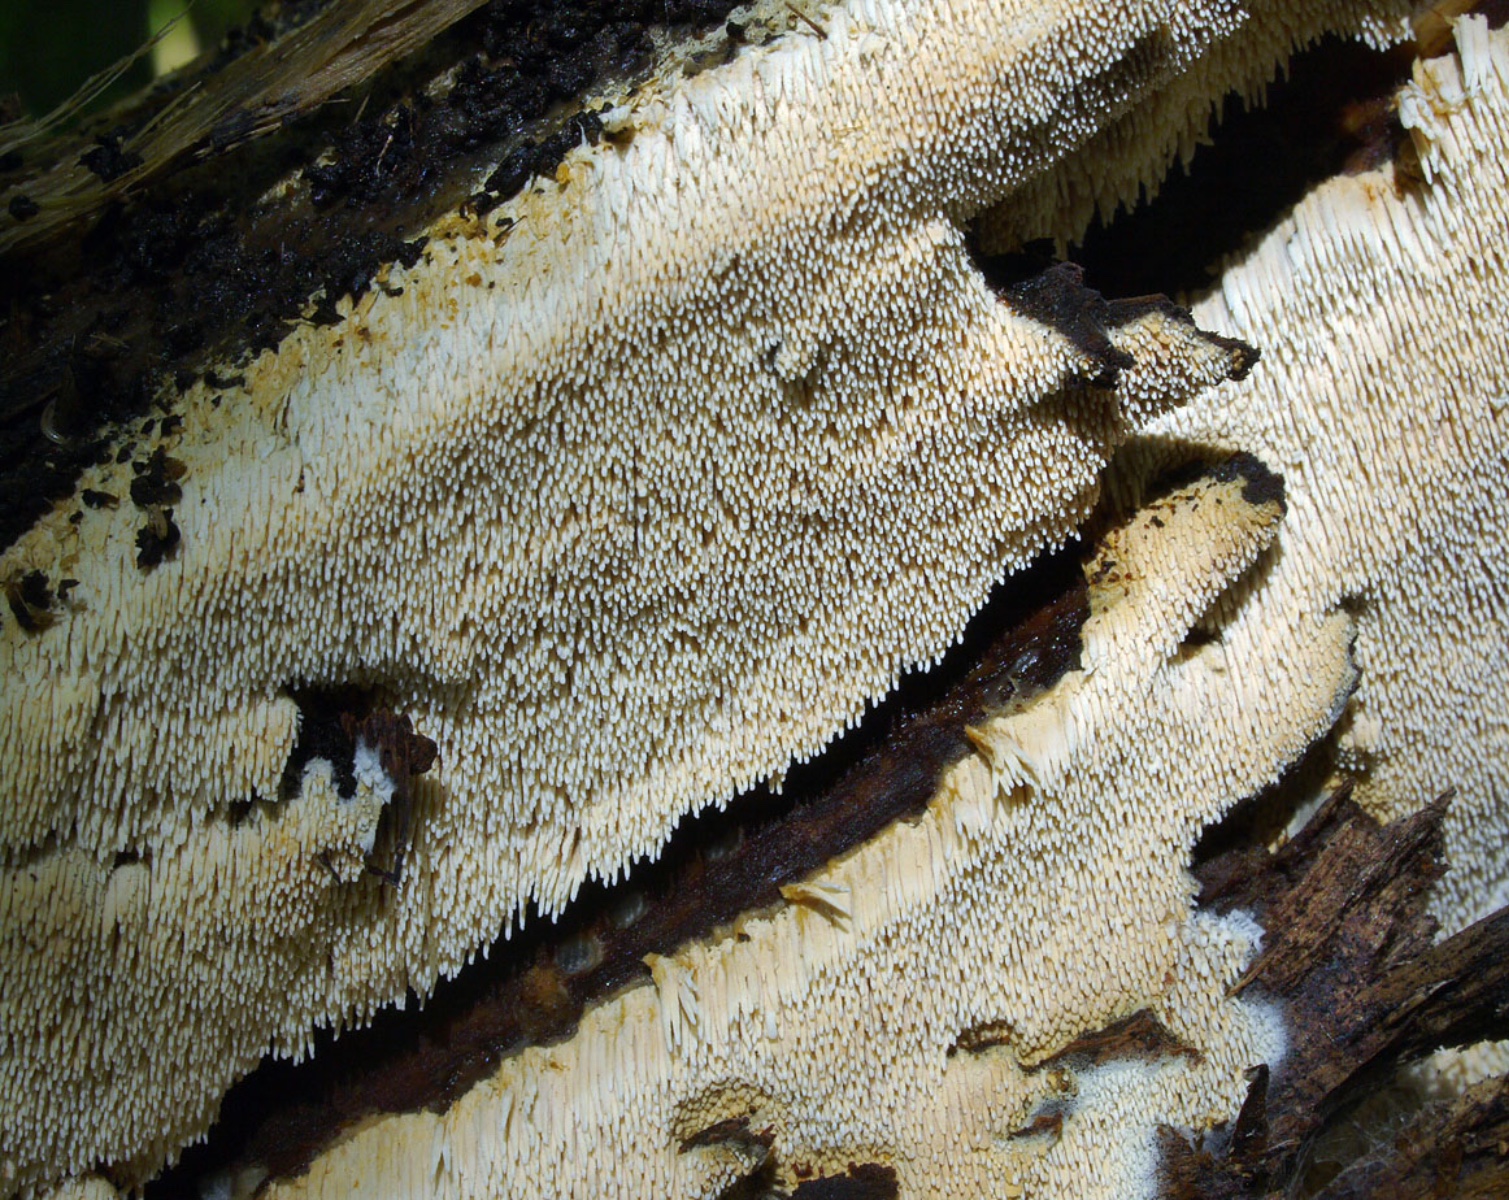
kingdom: Fungi
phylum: Basidiomycota
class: Agaricomycetes
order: Cantharellales
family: Hydnaceae
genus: Sistotrema
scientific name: Sistotrema raduloides
